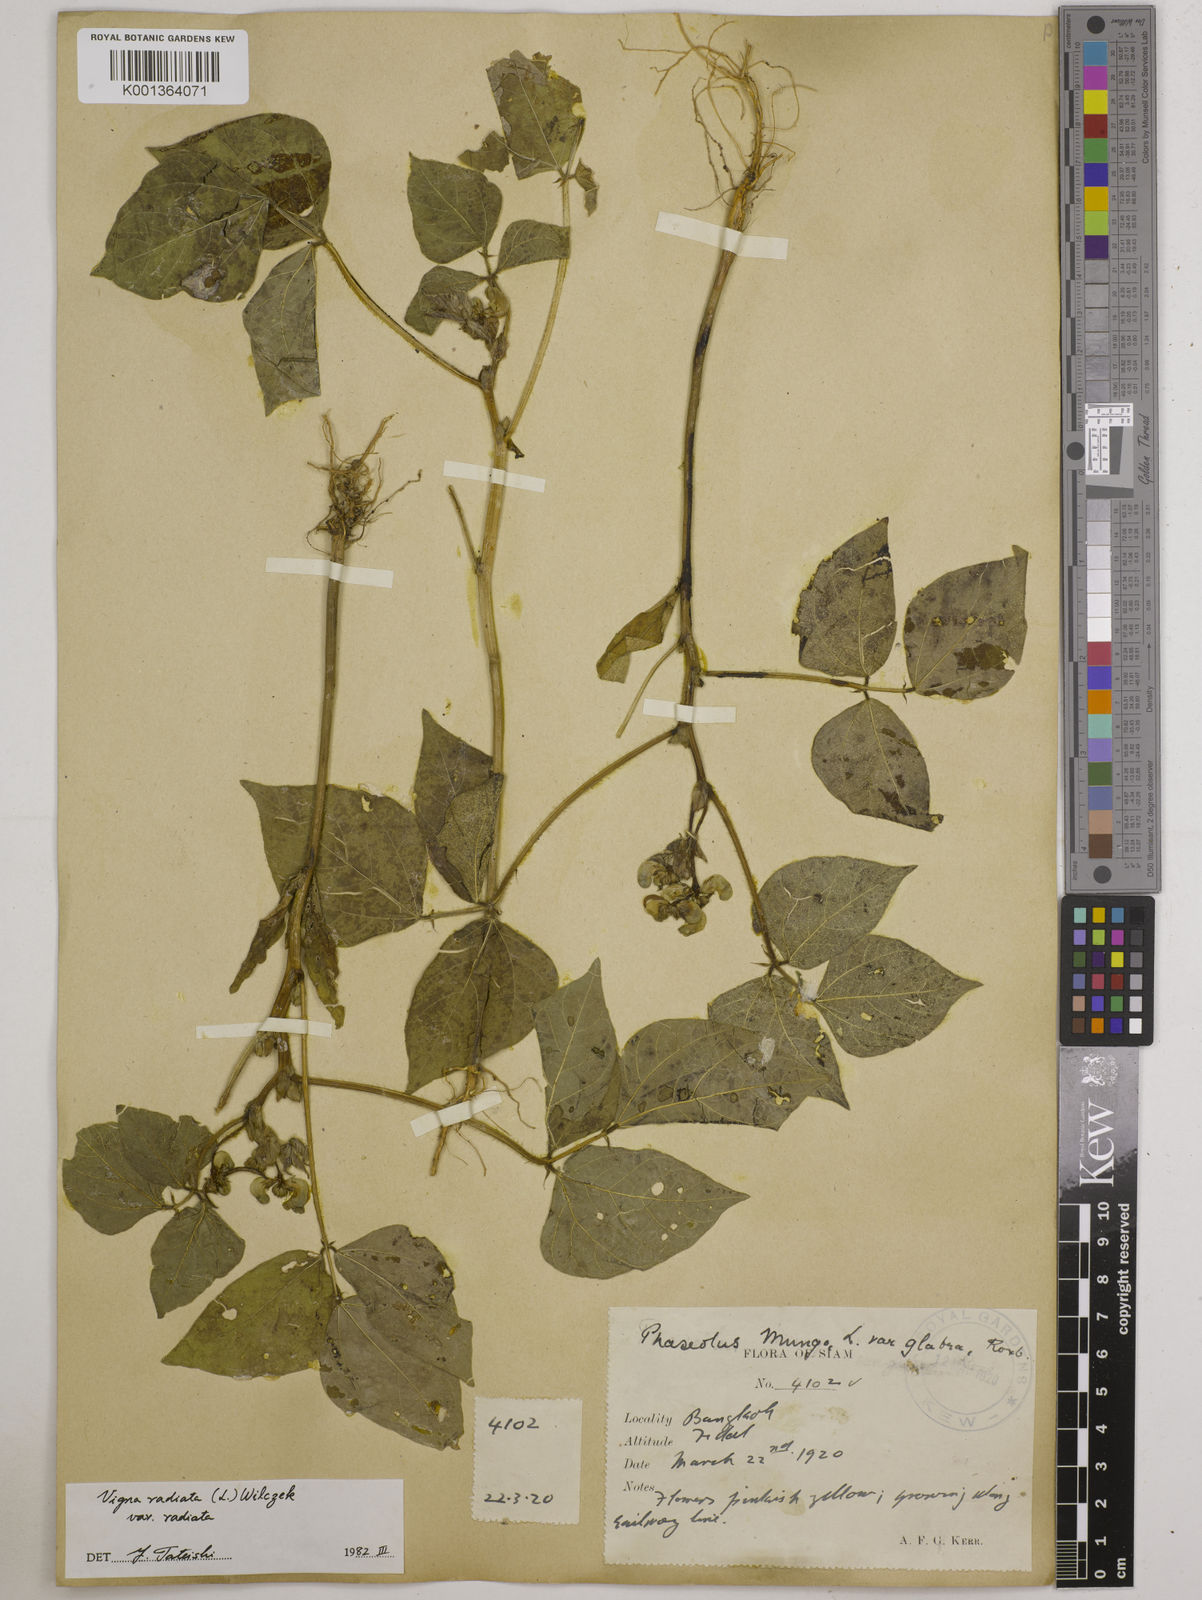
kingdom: Plantae
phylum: Tracheophyta
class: Magnoliopsida
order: Fabales
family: Fabaceae
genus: Vigna
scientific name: Vigna
